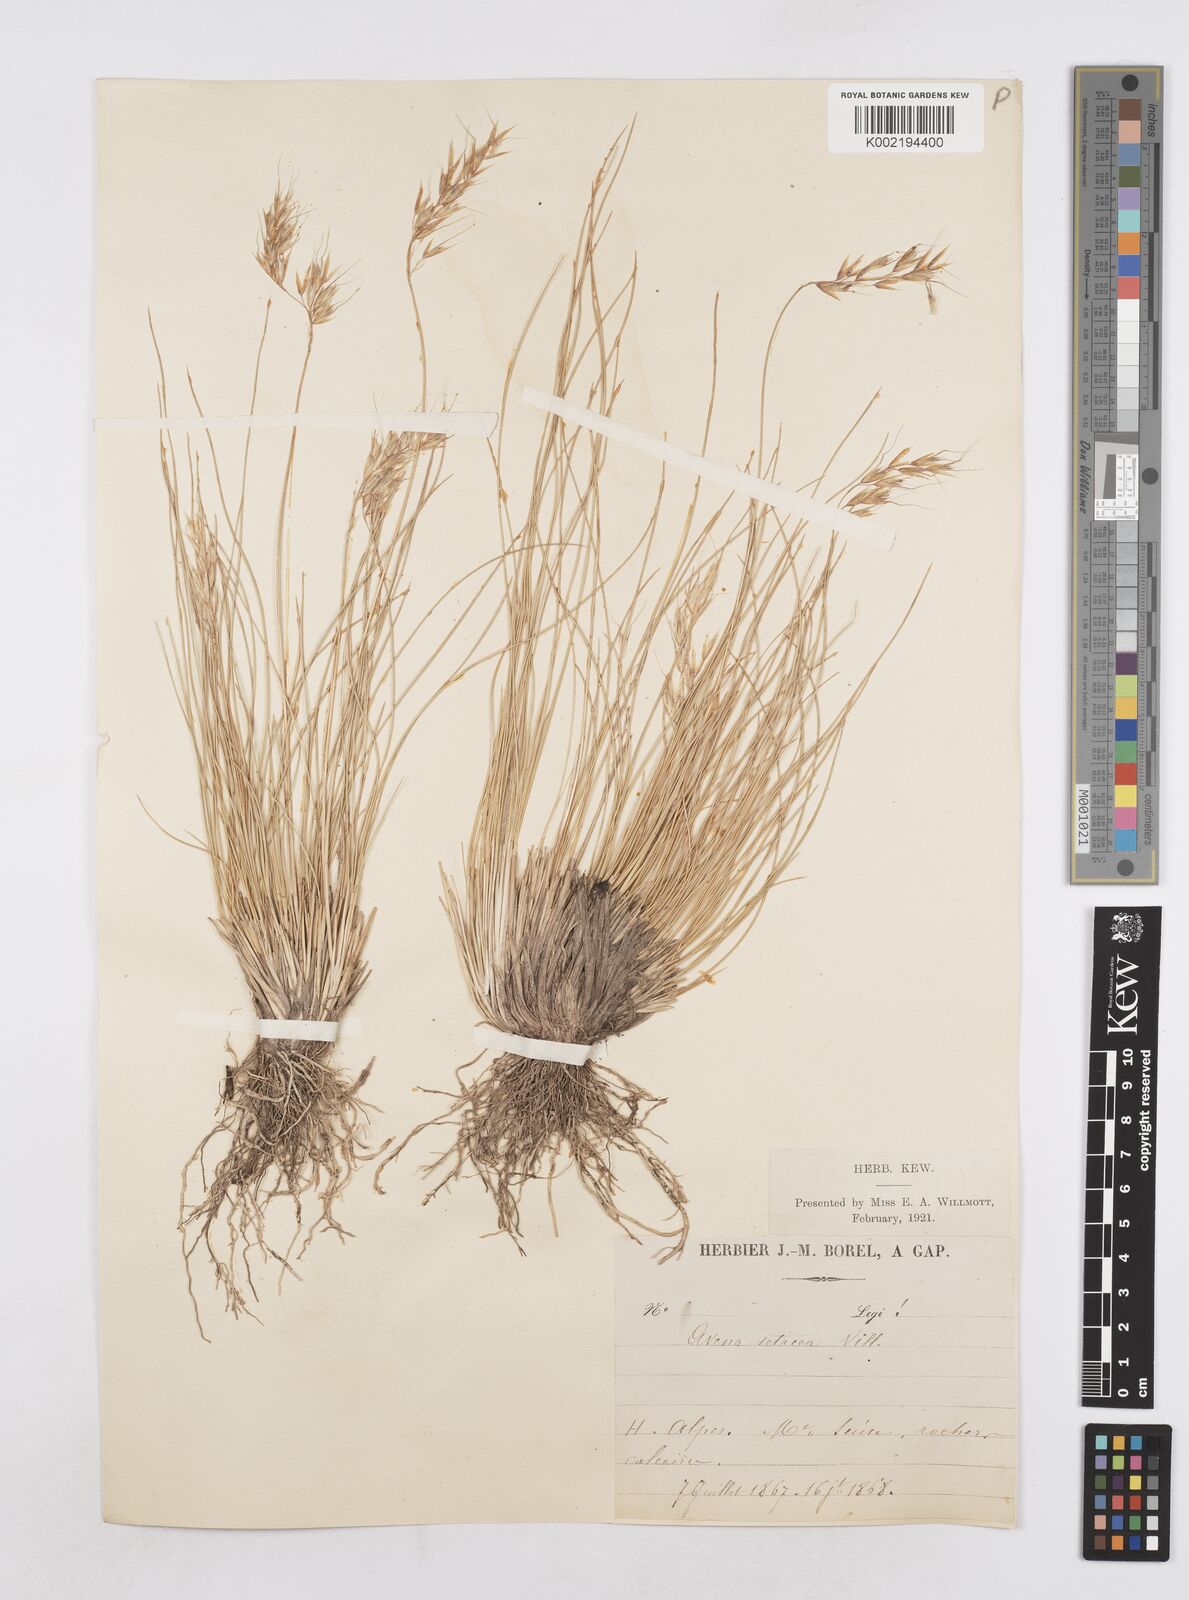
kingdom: Plantae
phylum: Tracheophyta
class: Liliopsida
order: Poales
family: Poaceae
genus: Helictotrichon
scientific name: Helictotrichon setaceum
